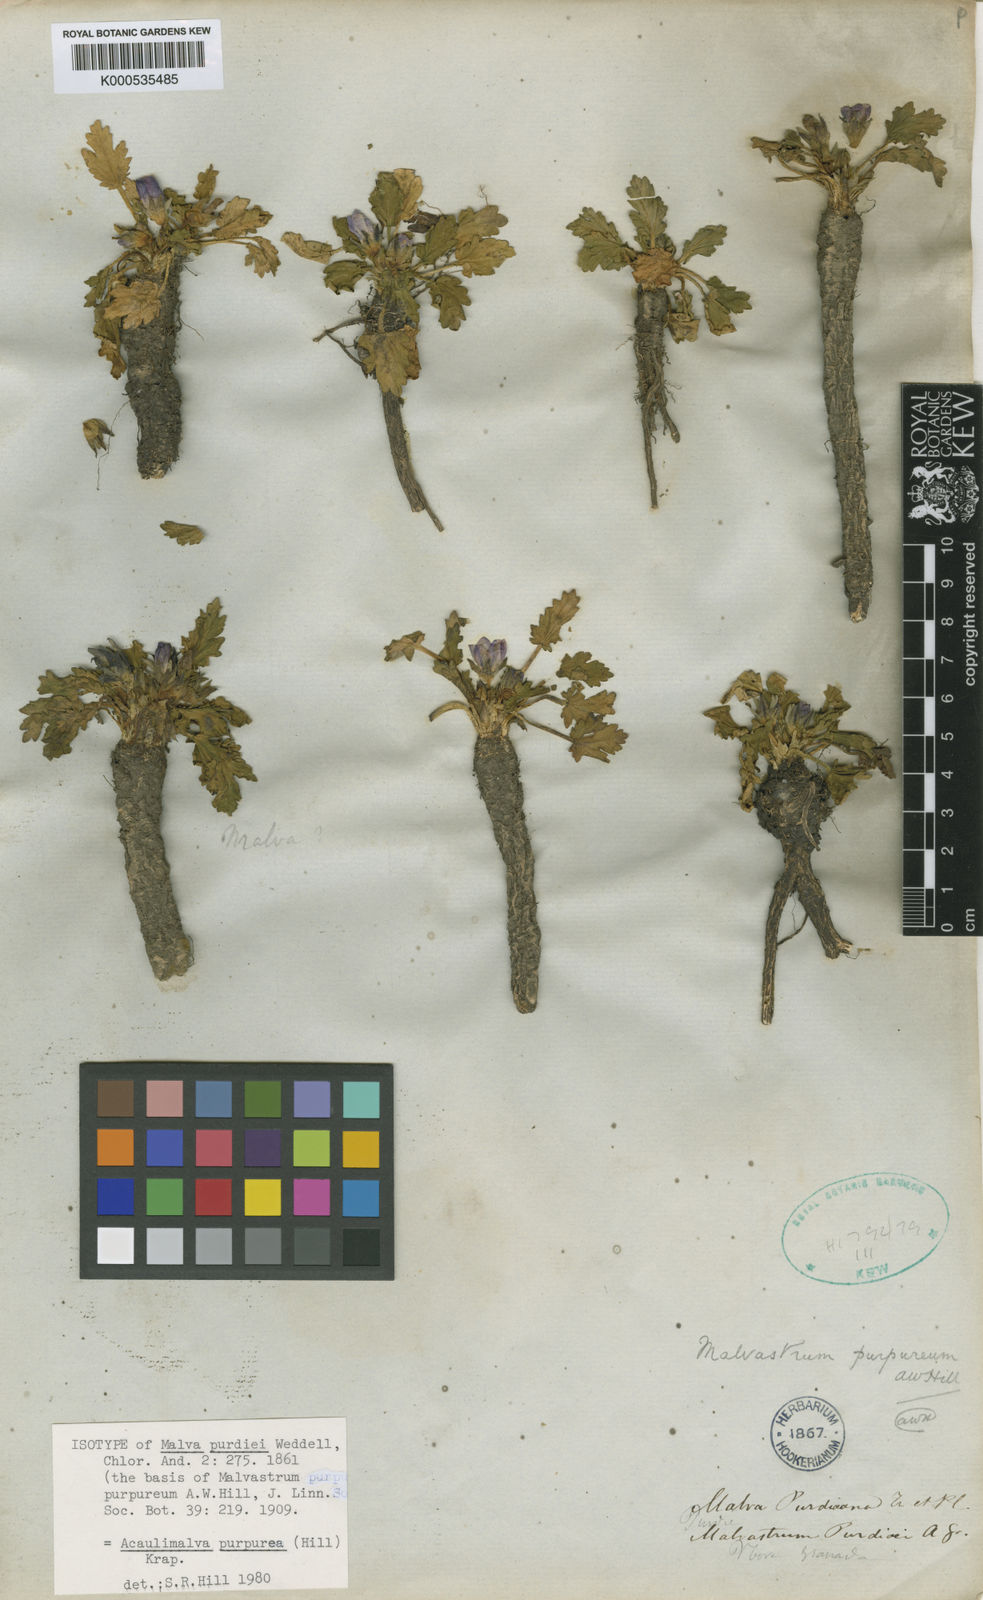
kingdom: Plantae
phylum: Tracheophyta
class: Magnoliopsida
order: Malvales
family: Malvaceae
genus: Acaulimalva
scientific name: Acaulimalva purpurea
